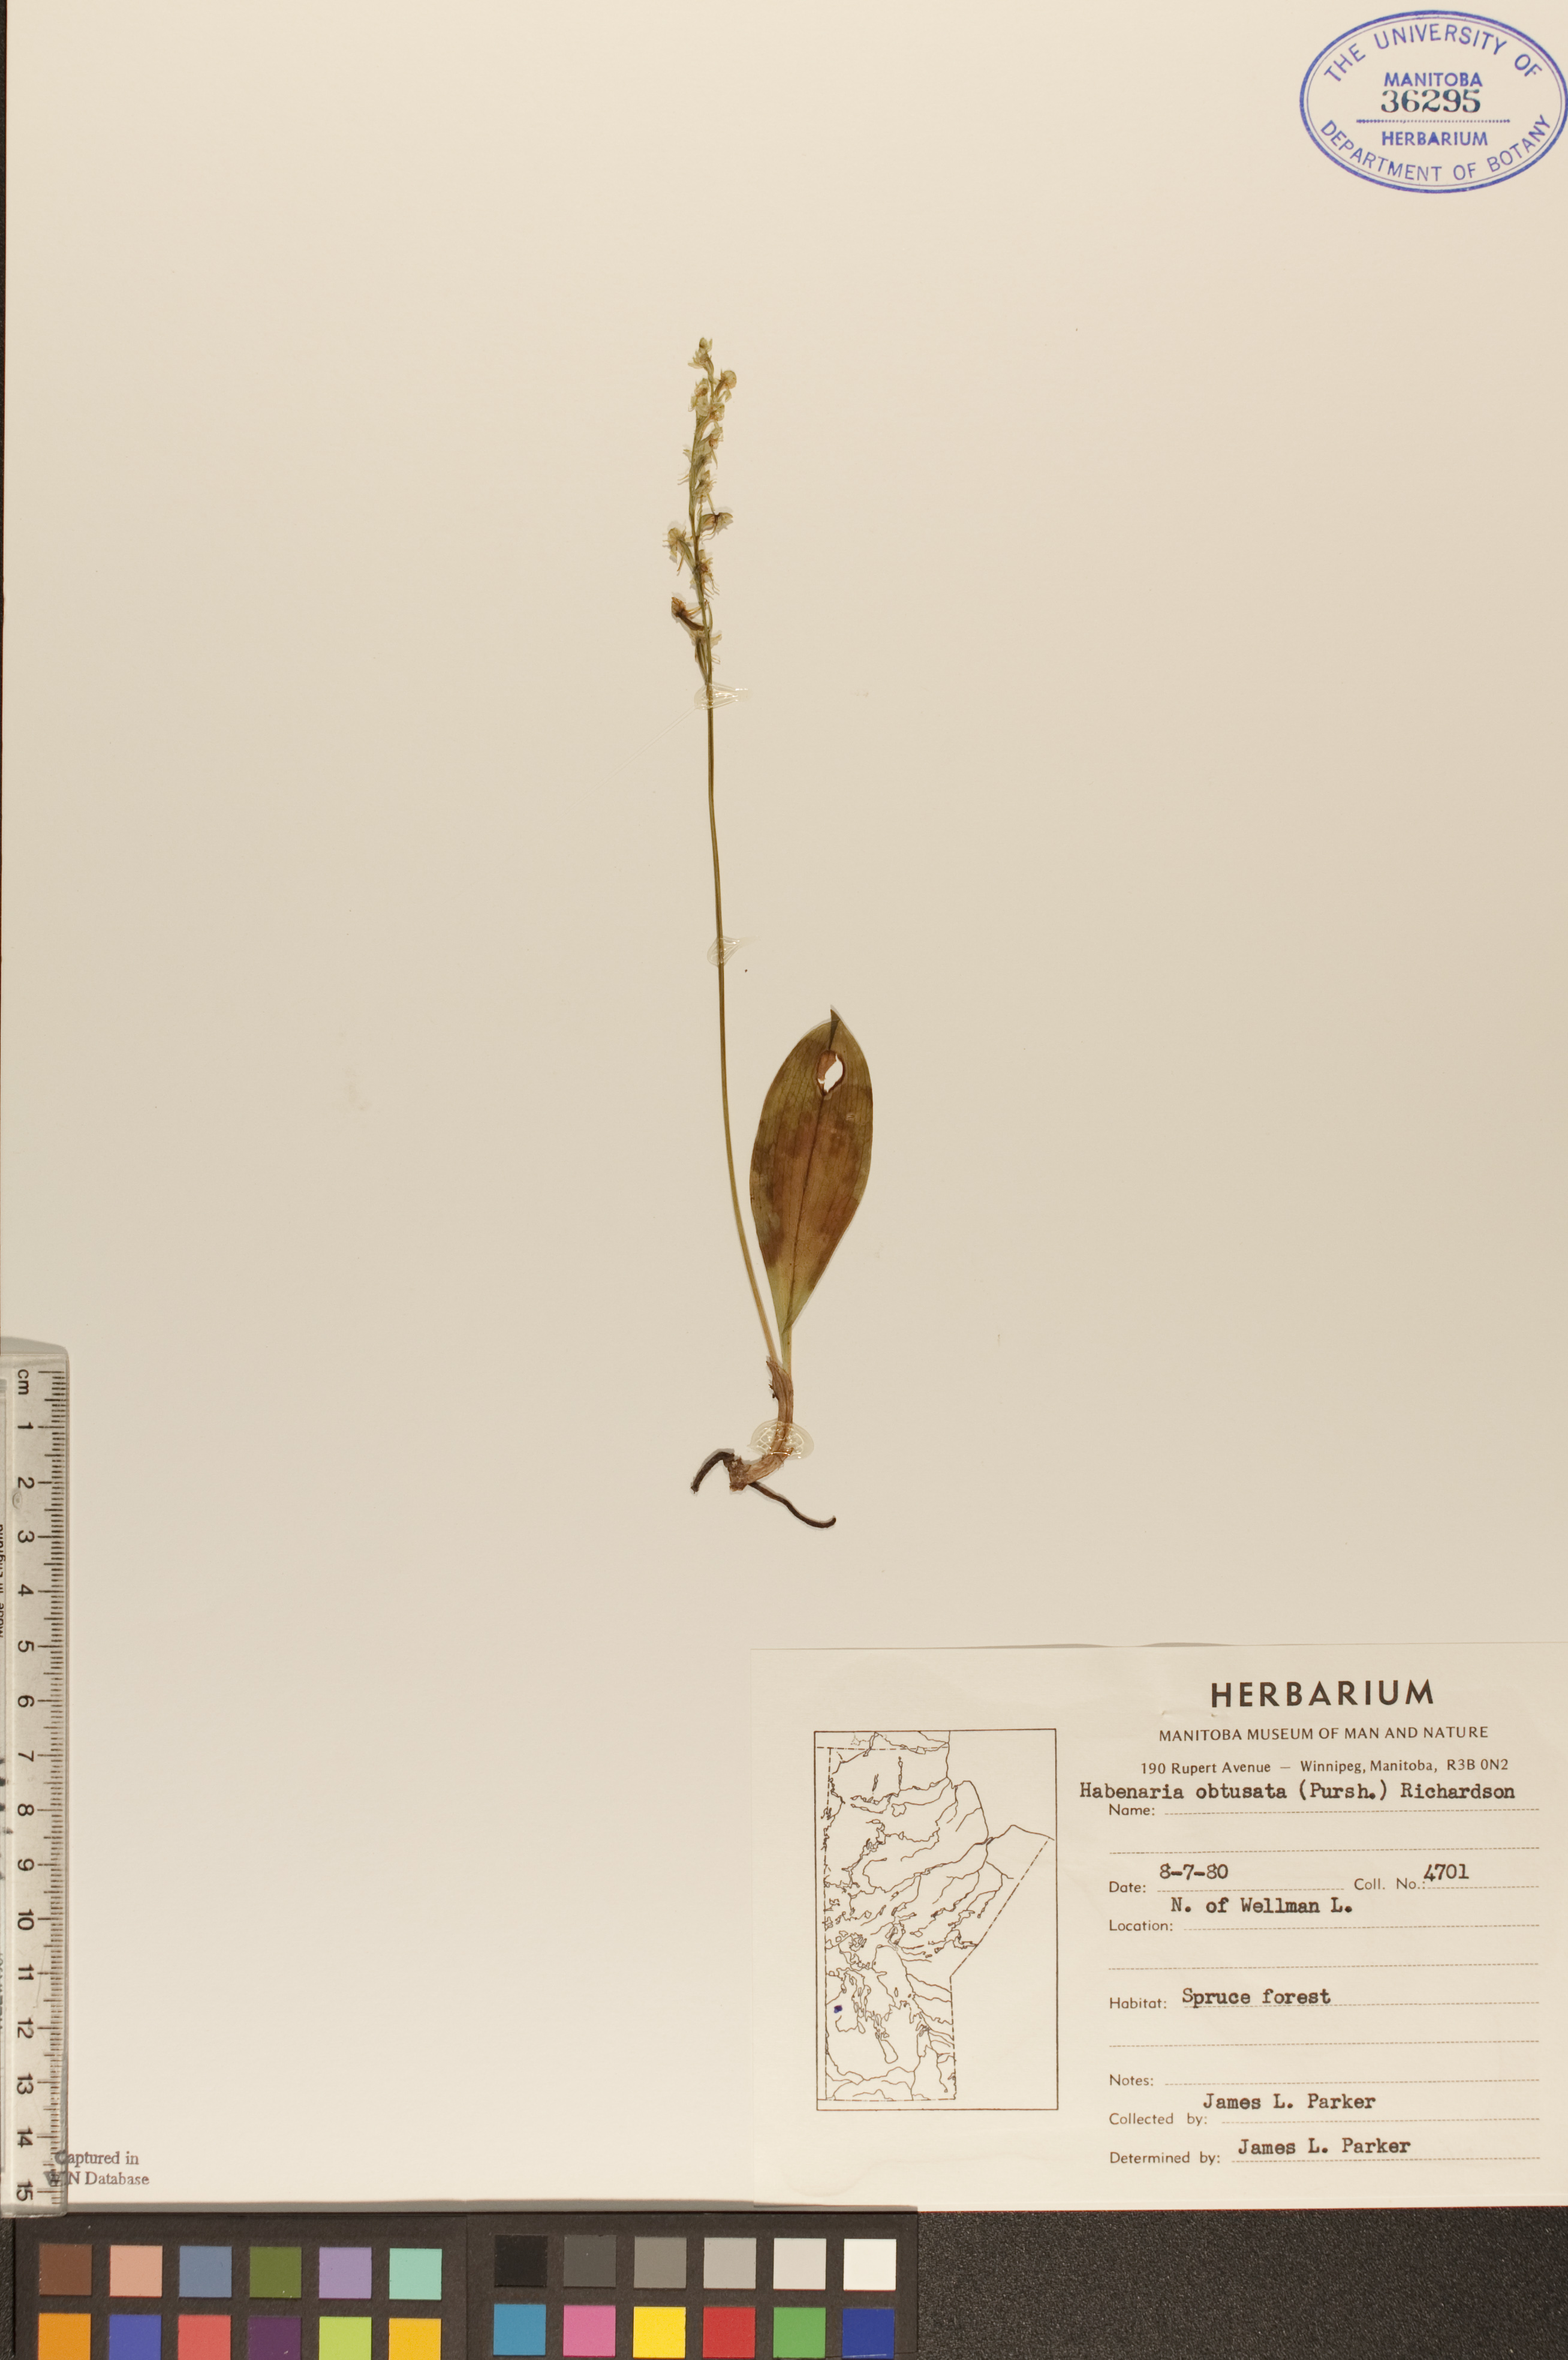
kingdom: Plantae
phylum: Tracheophyta
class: Liliopsida
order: Asparagales
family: Orchidaceae
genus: Platanthera
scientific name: Platanthera obtusata
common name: Blunt bog orchid
